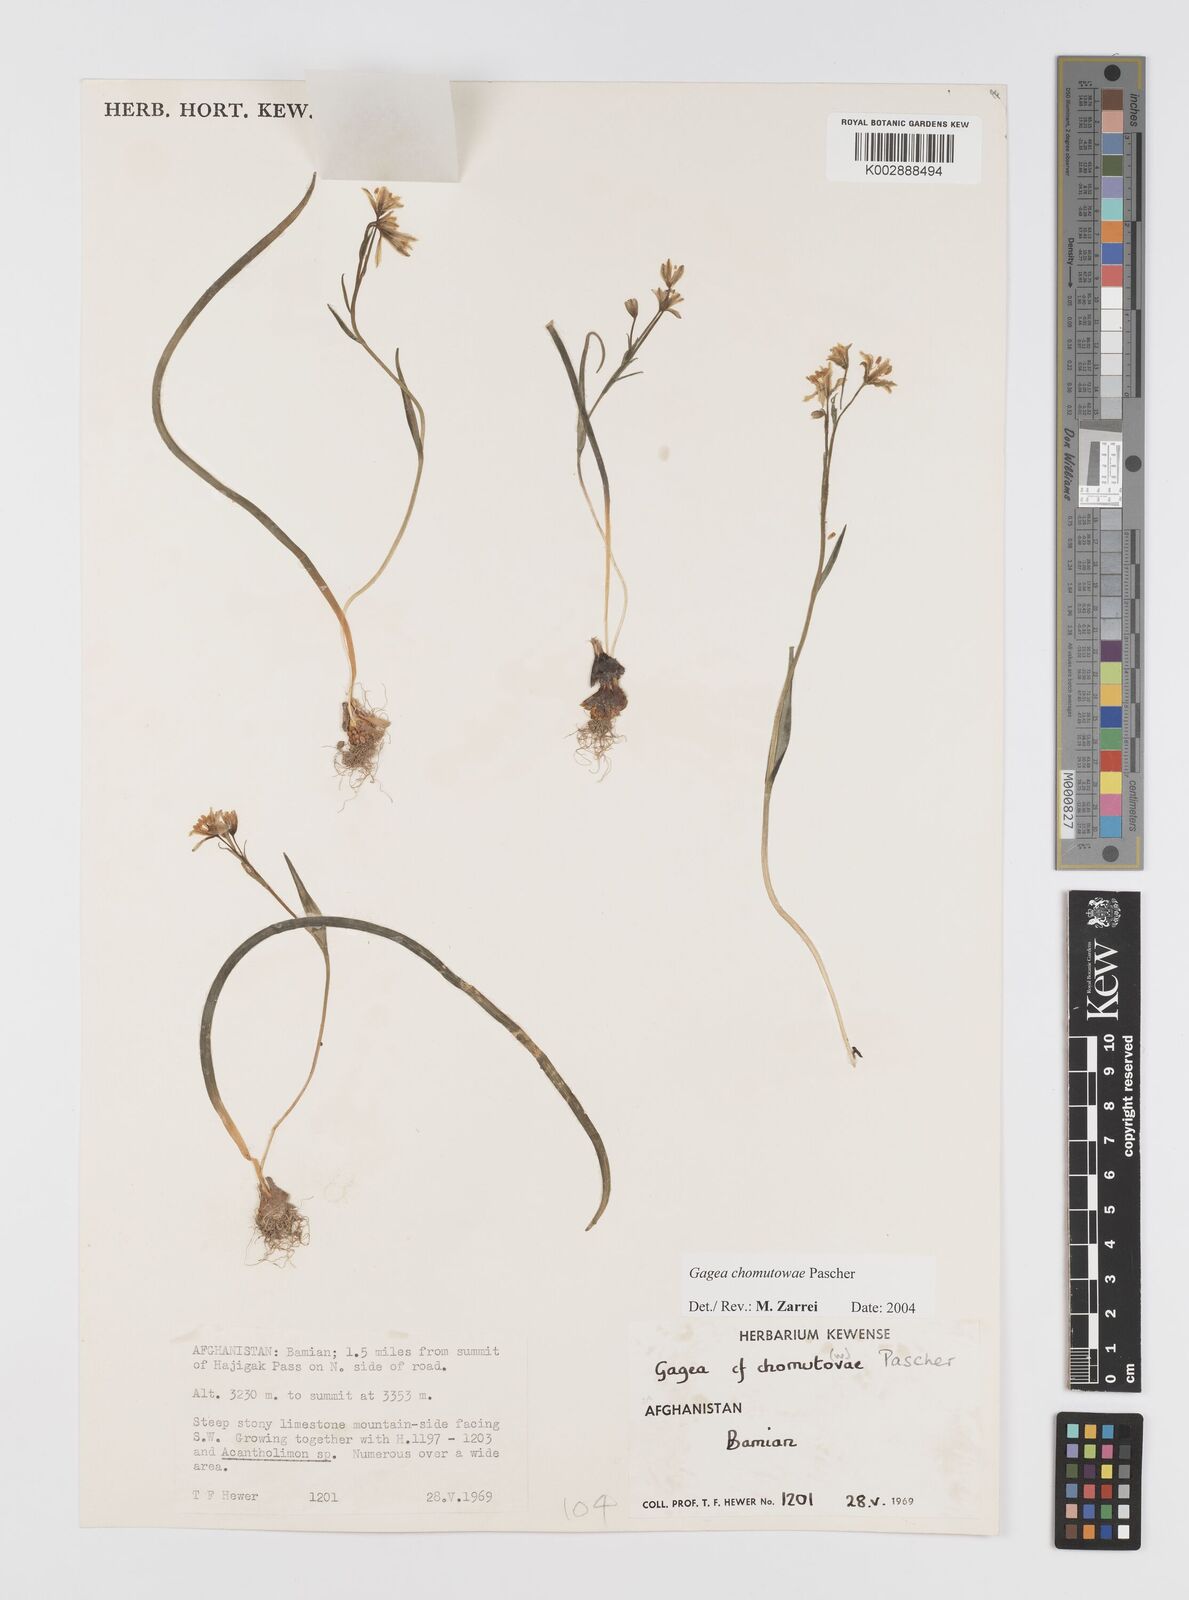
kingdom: Plantae
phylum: Tracheophyta
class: Liliopsida
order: Liliales
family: Liliaceae
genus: Gagea
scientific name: Gagea chomutovae
